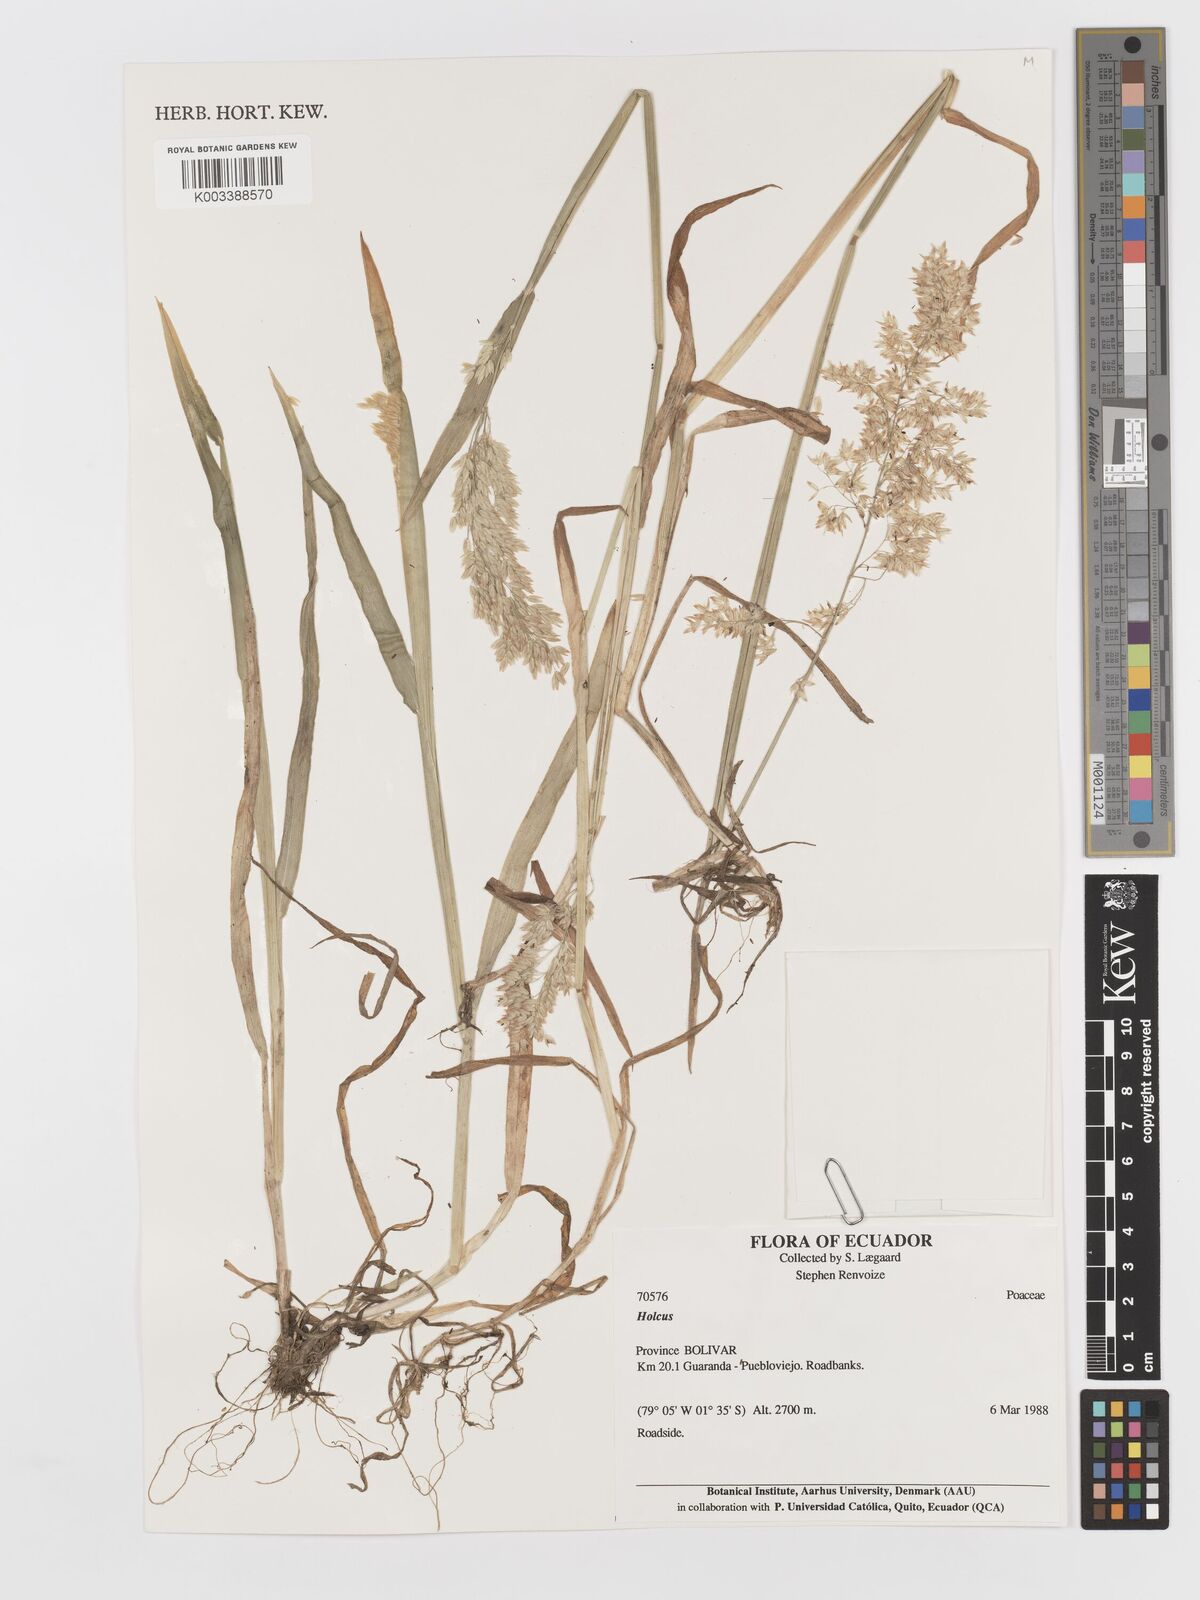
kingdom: Plantae
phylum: Tracheophyta
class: Liliopsida
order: Poales
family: Poaceae
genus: Holcus
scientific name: Holcus lanatus
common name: Yorkshire-fog
